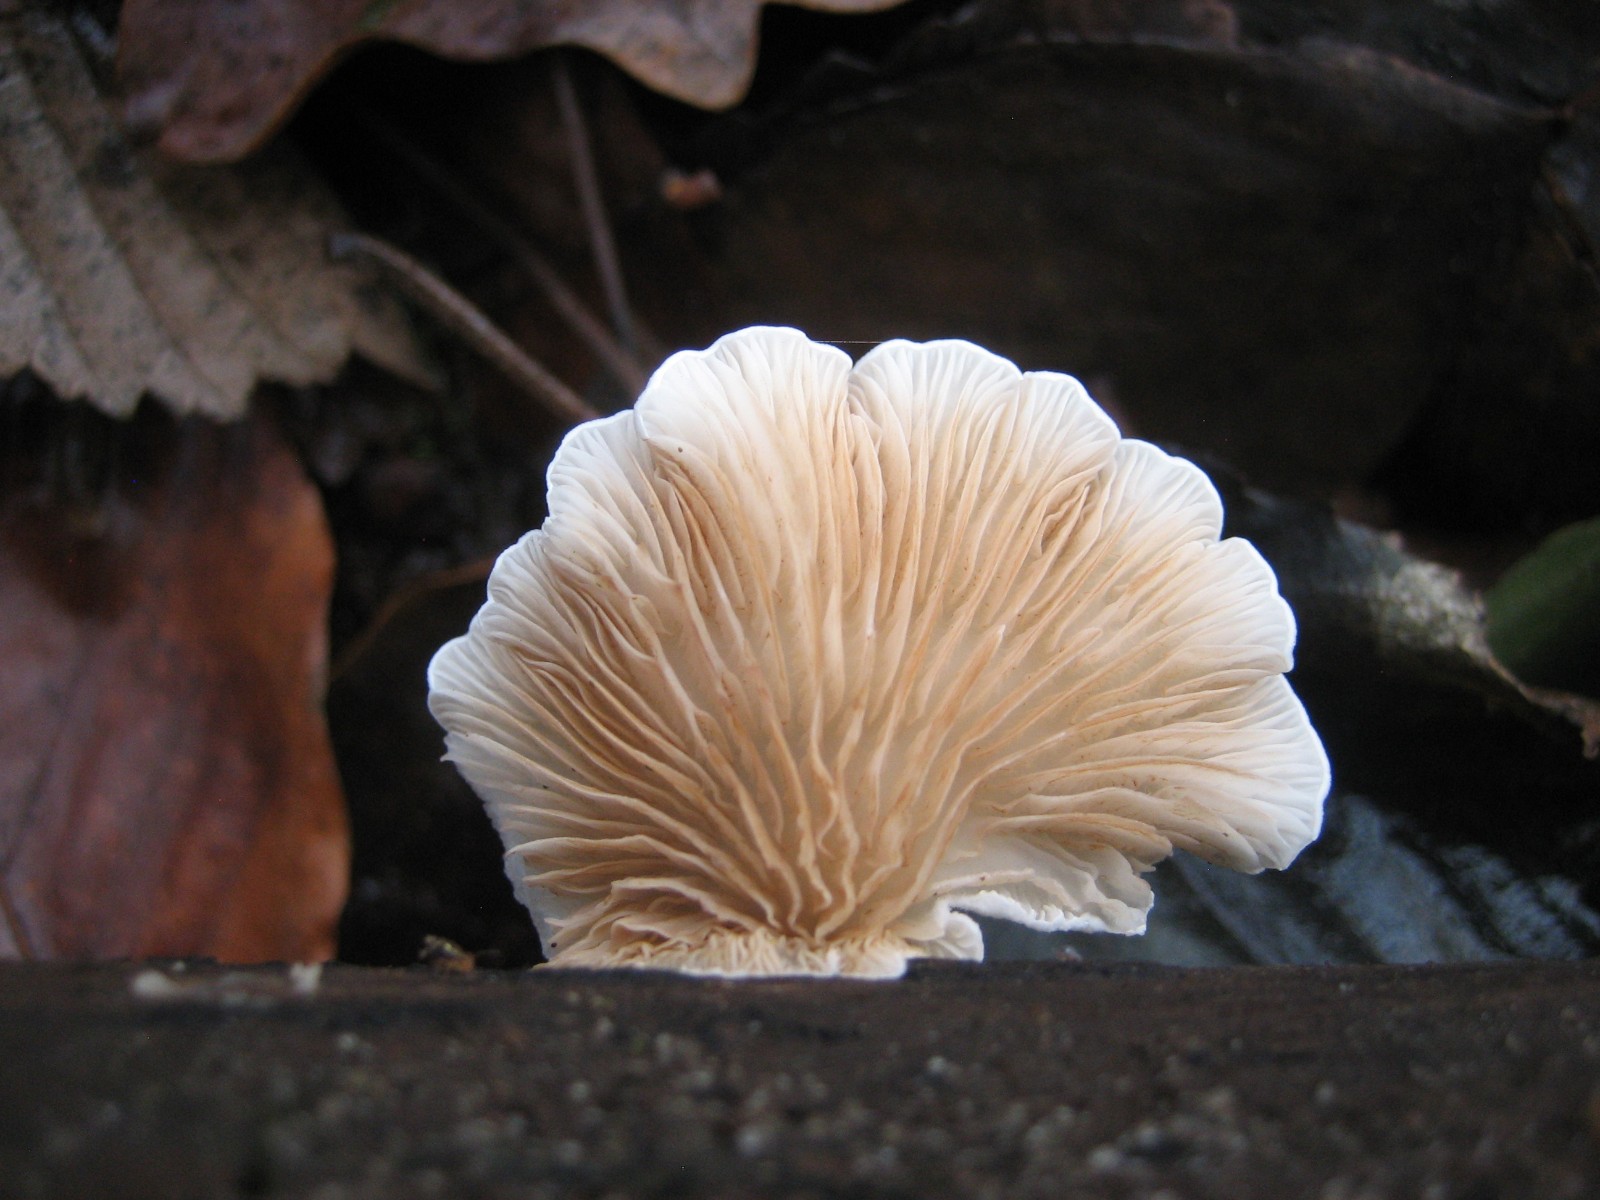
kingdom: Fungi
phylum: Basidiomycota
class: Agaricomycetes
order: Agaricales
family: Crepidotaceae
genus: Crepidotus
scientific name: Crepidotus
